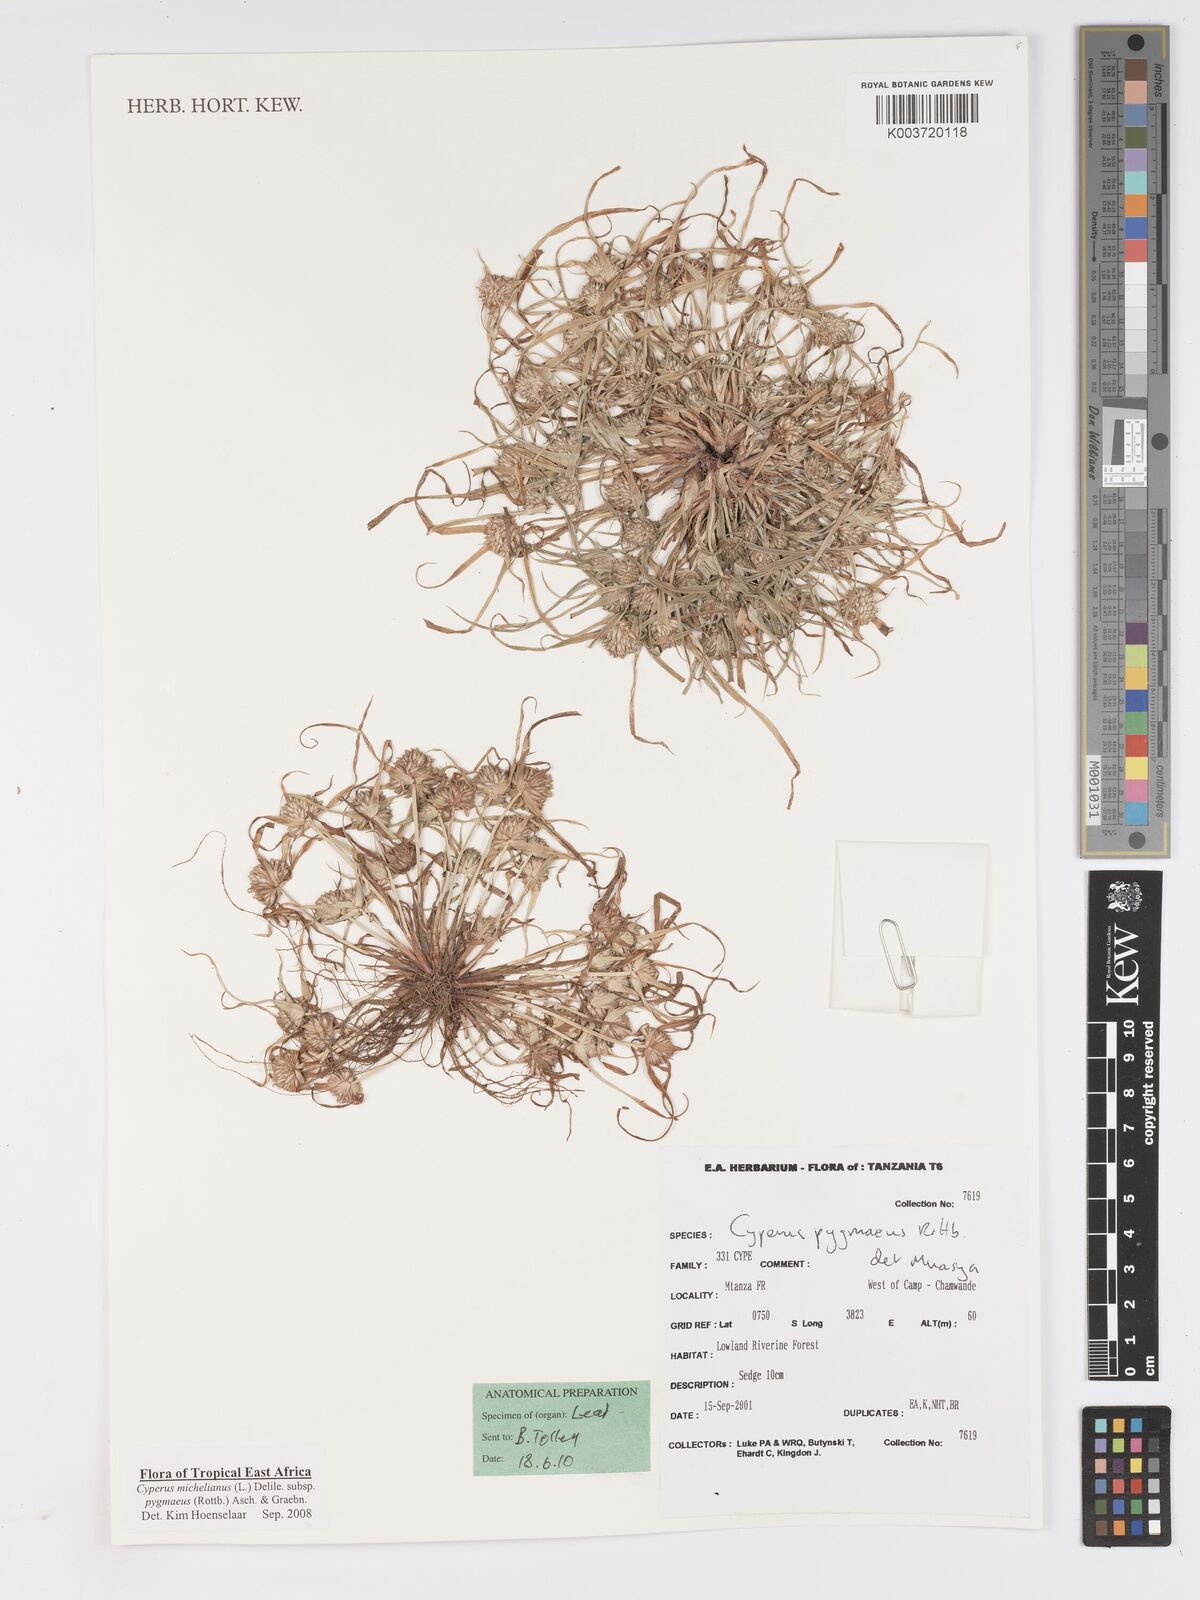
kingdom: Plantae
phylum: Tracheophyta
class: Liliopsida
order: Poales
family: Cyperaceae
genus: Cyperus
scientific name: Cyperus michelianus
